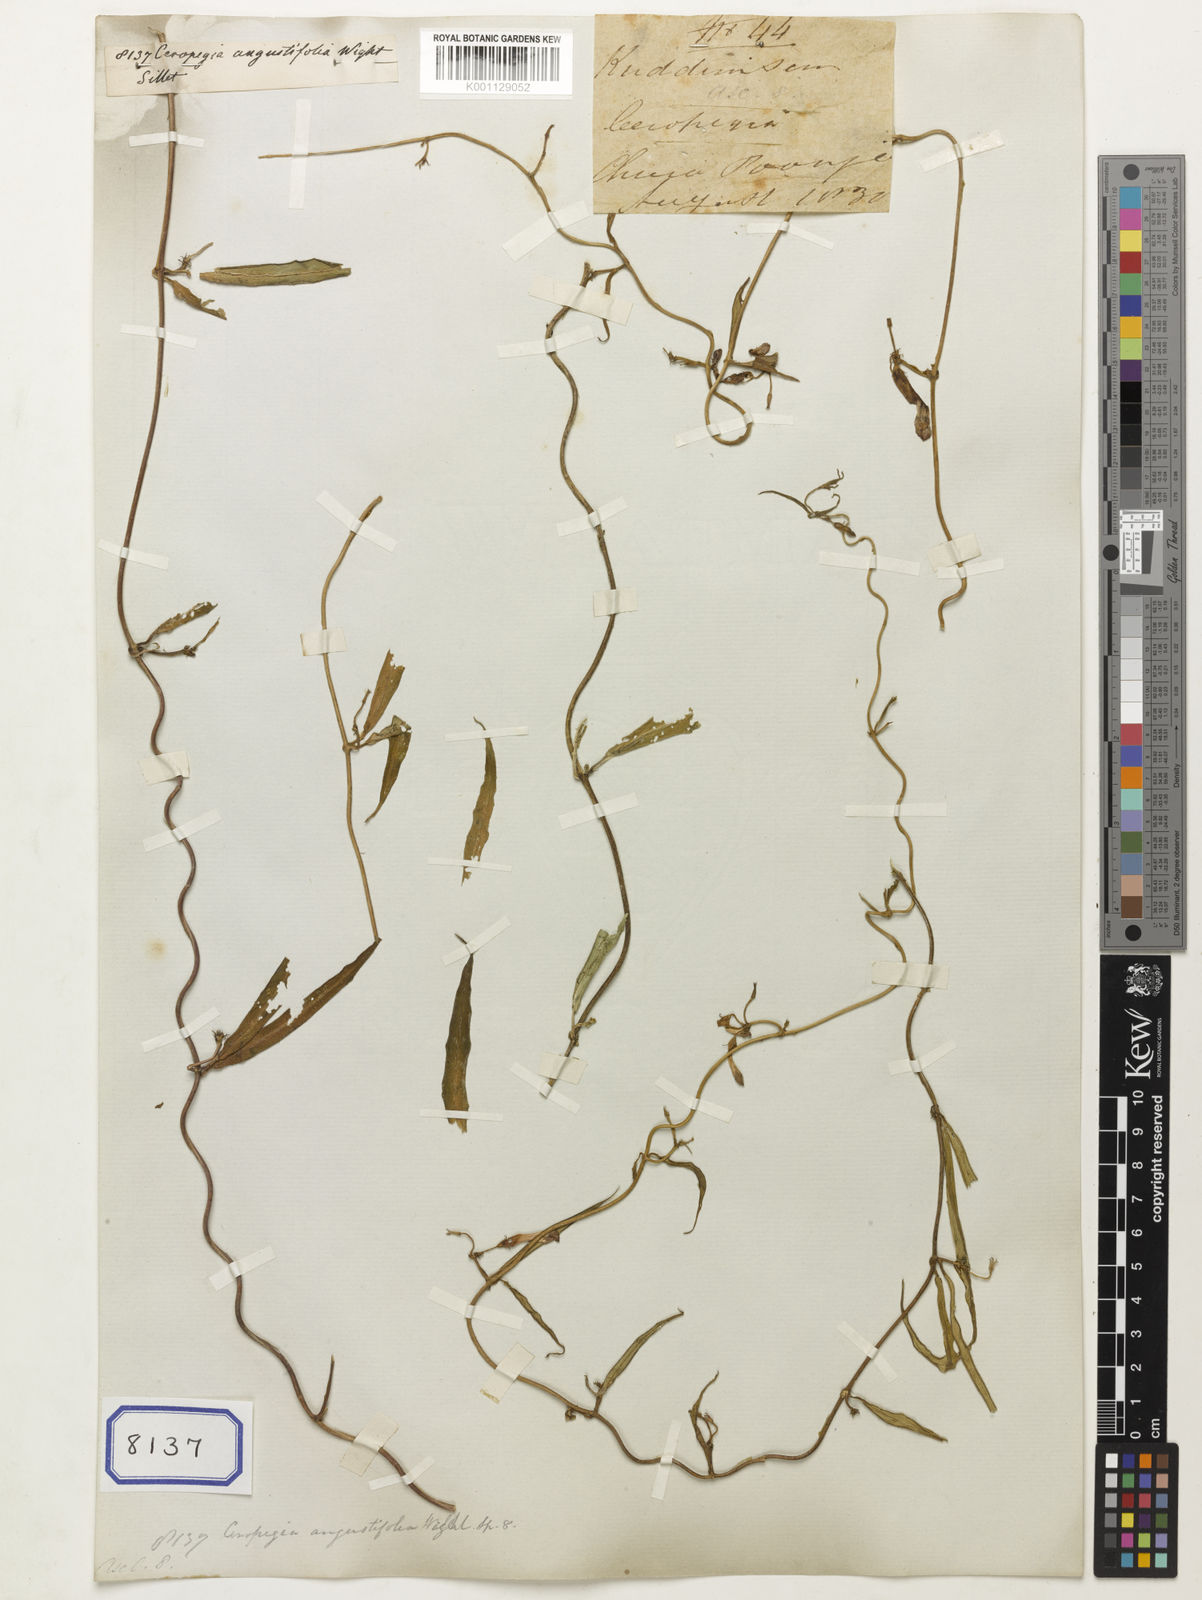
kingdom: Plantae
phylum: Tracheophyta
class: Magnoliopsida
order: Gentianales
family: Apocynaceae
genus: Ceropegia
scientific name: Ceropegia angustifolia
